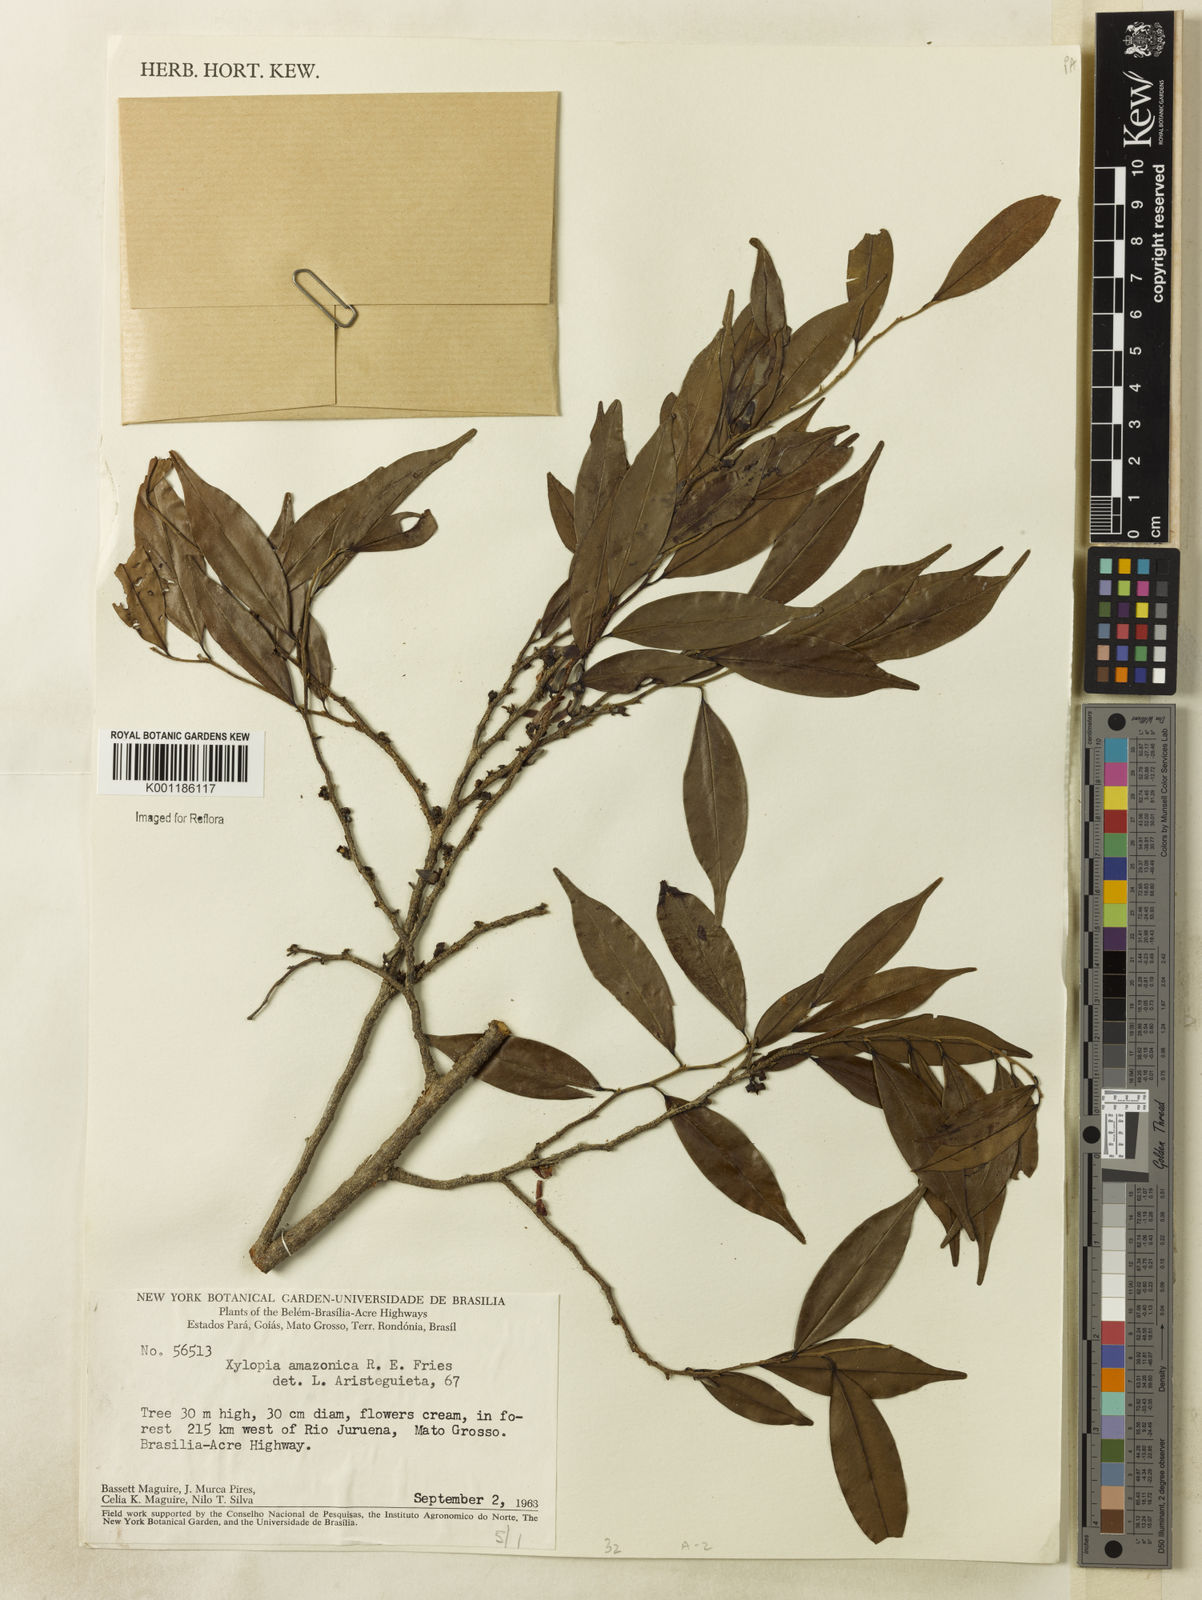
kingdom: Plantae
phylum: Tracheophyta
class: Magnoliopsida
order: Magnoliales
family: Annonaceae
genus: Xylopia
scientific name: Xylopia amazonica
